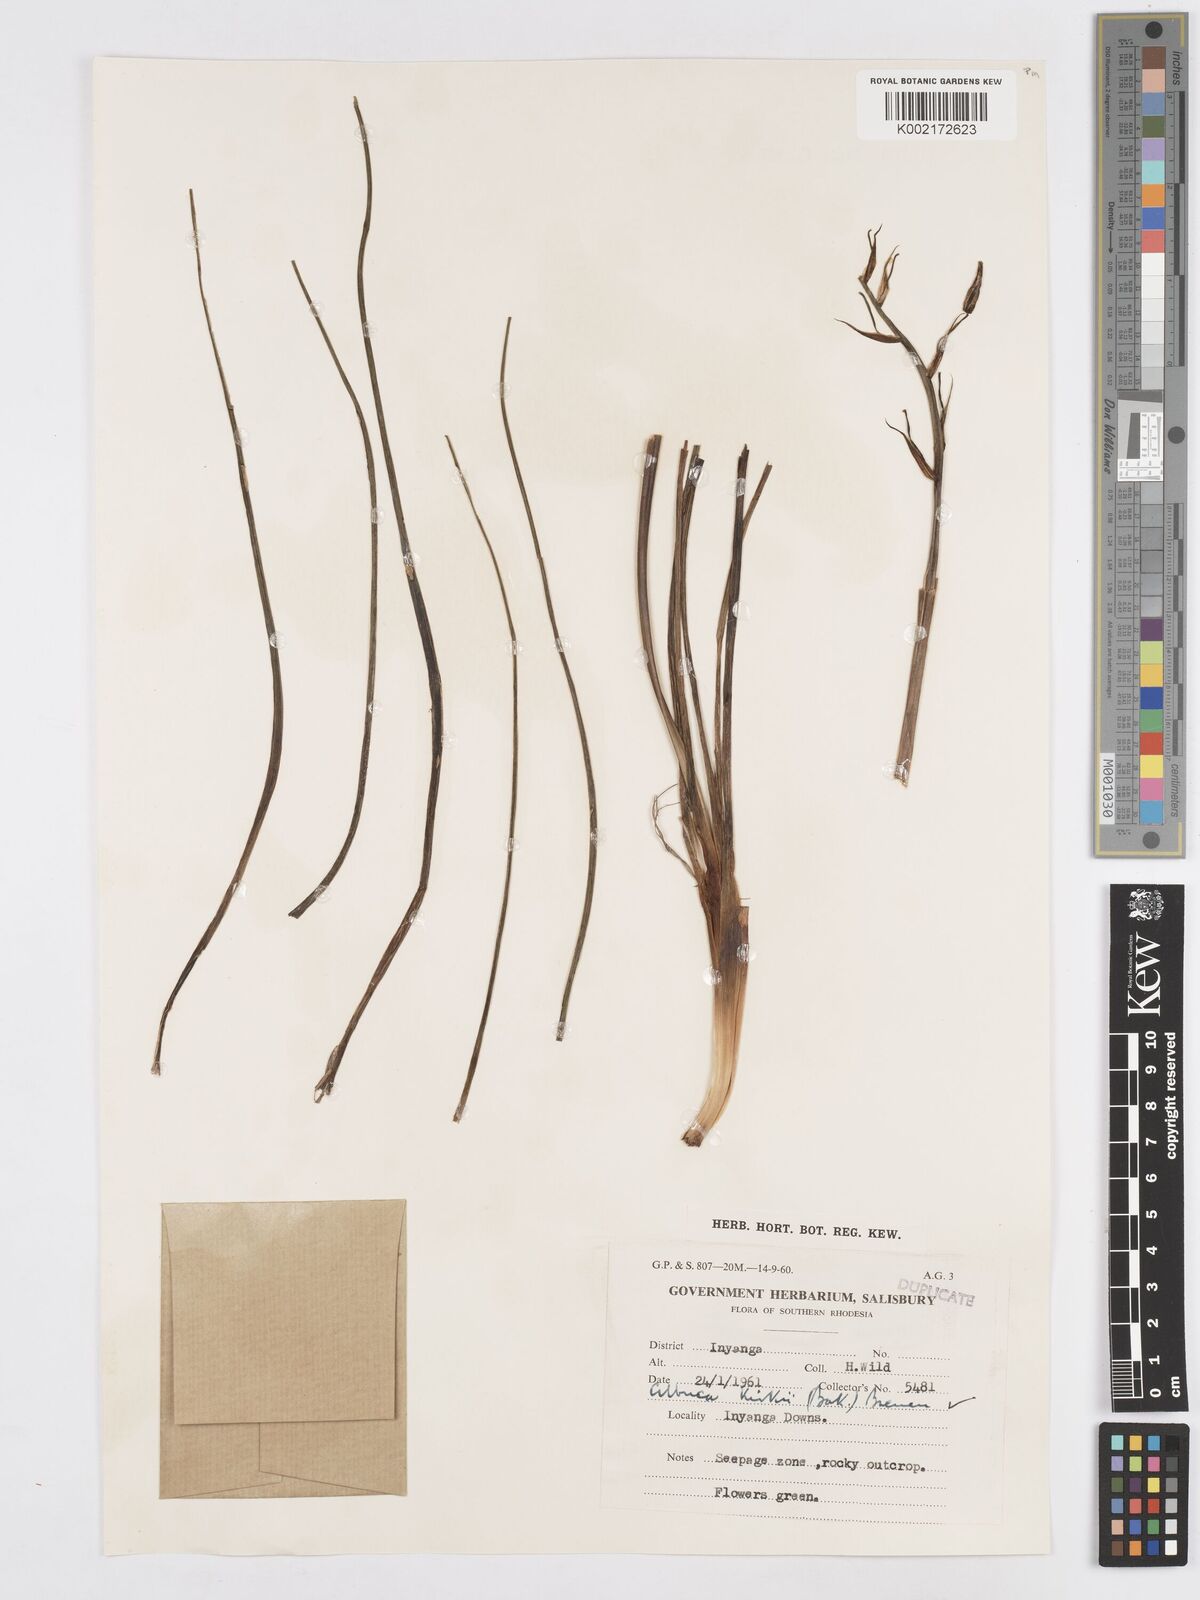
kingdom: Plantae
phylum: Tracheophyta
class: Liliopsida
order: Asparagales
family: Asparagaceae
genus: Albuca
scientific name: Albuca kirkii
